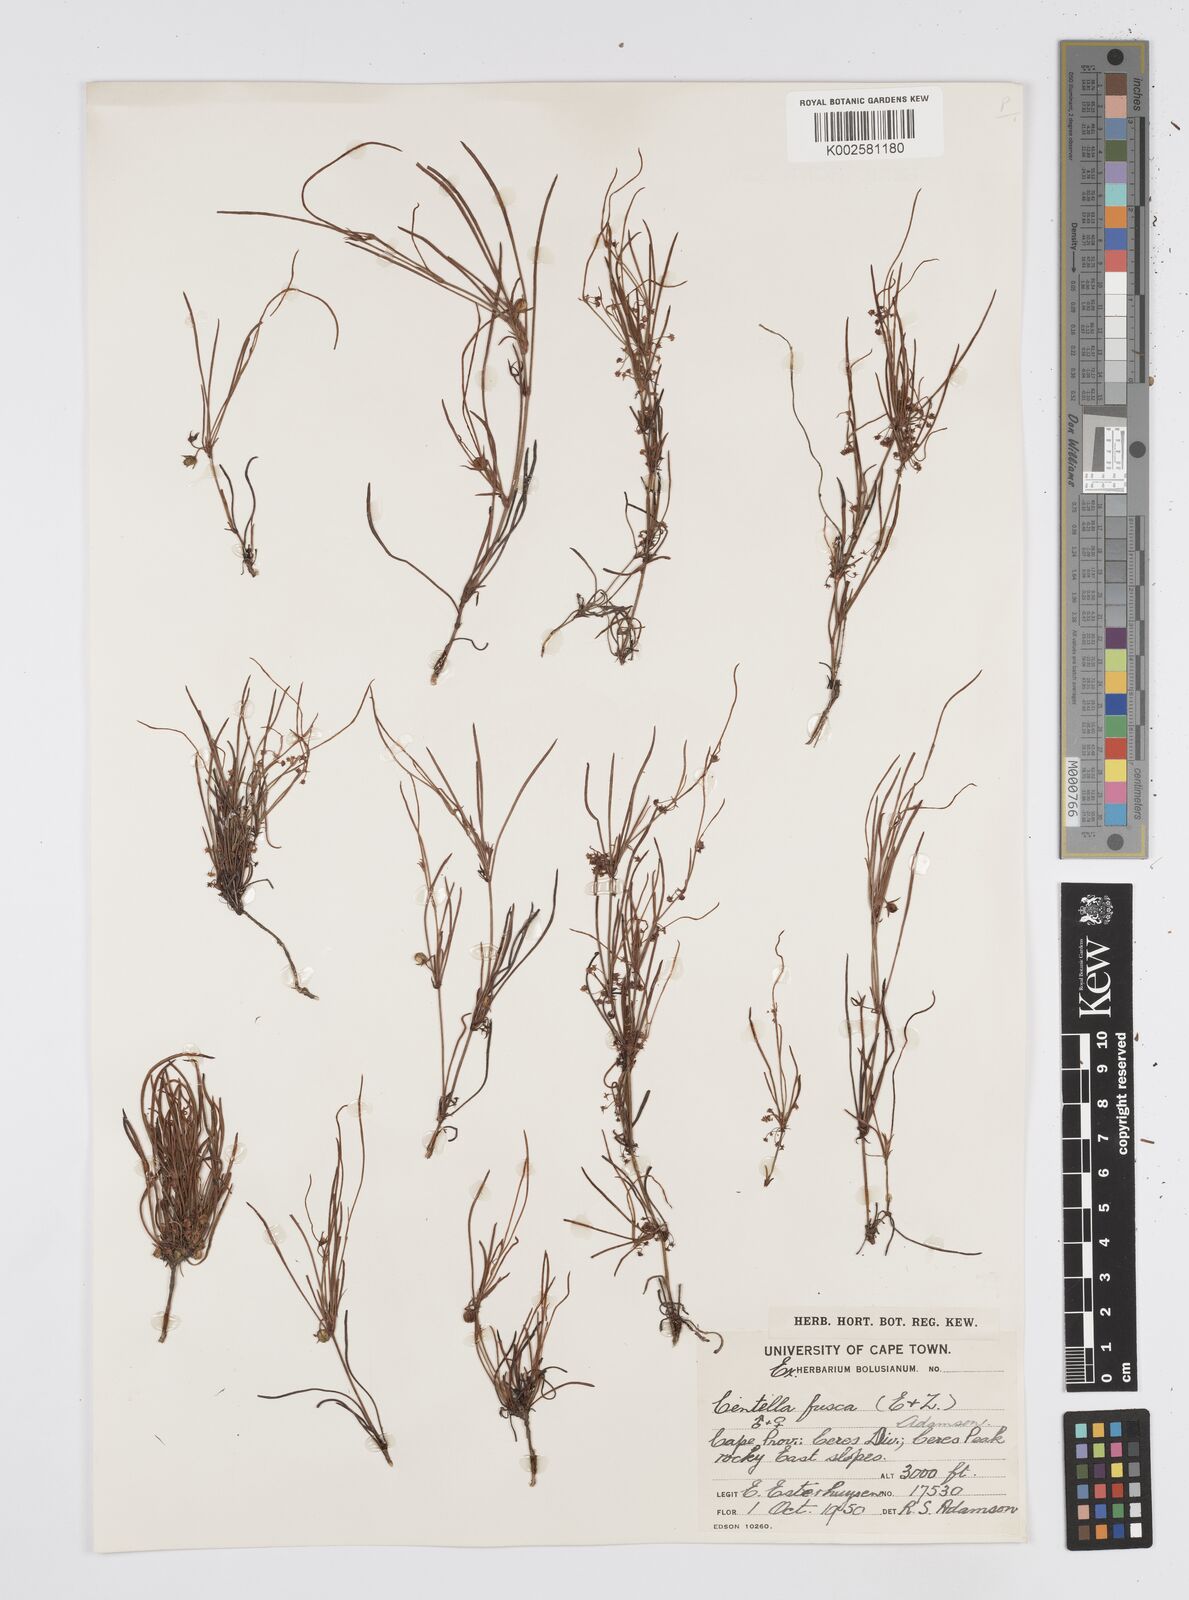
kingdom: Plantae
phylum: Tracheophyta
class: Magnoliopsida
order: Apiales
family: Apiaceae
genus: Centella
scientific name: Centella fusca
